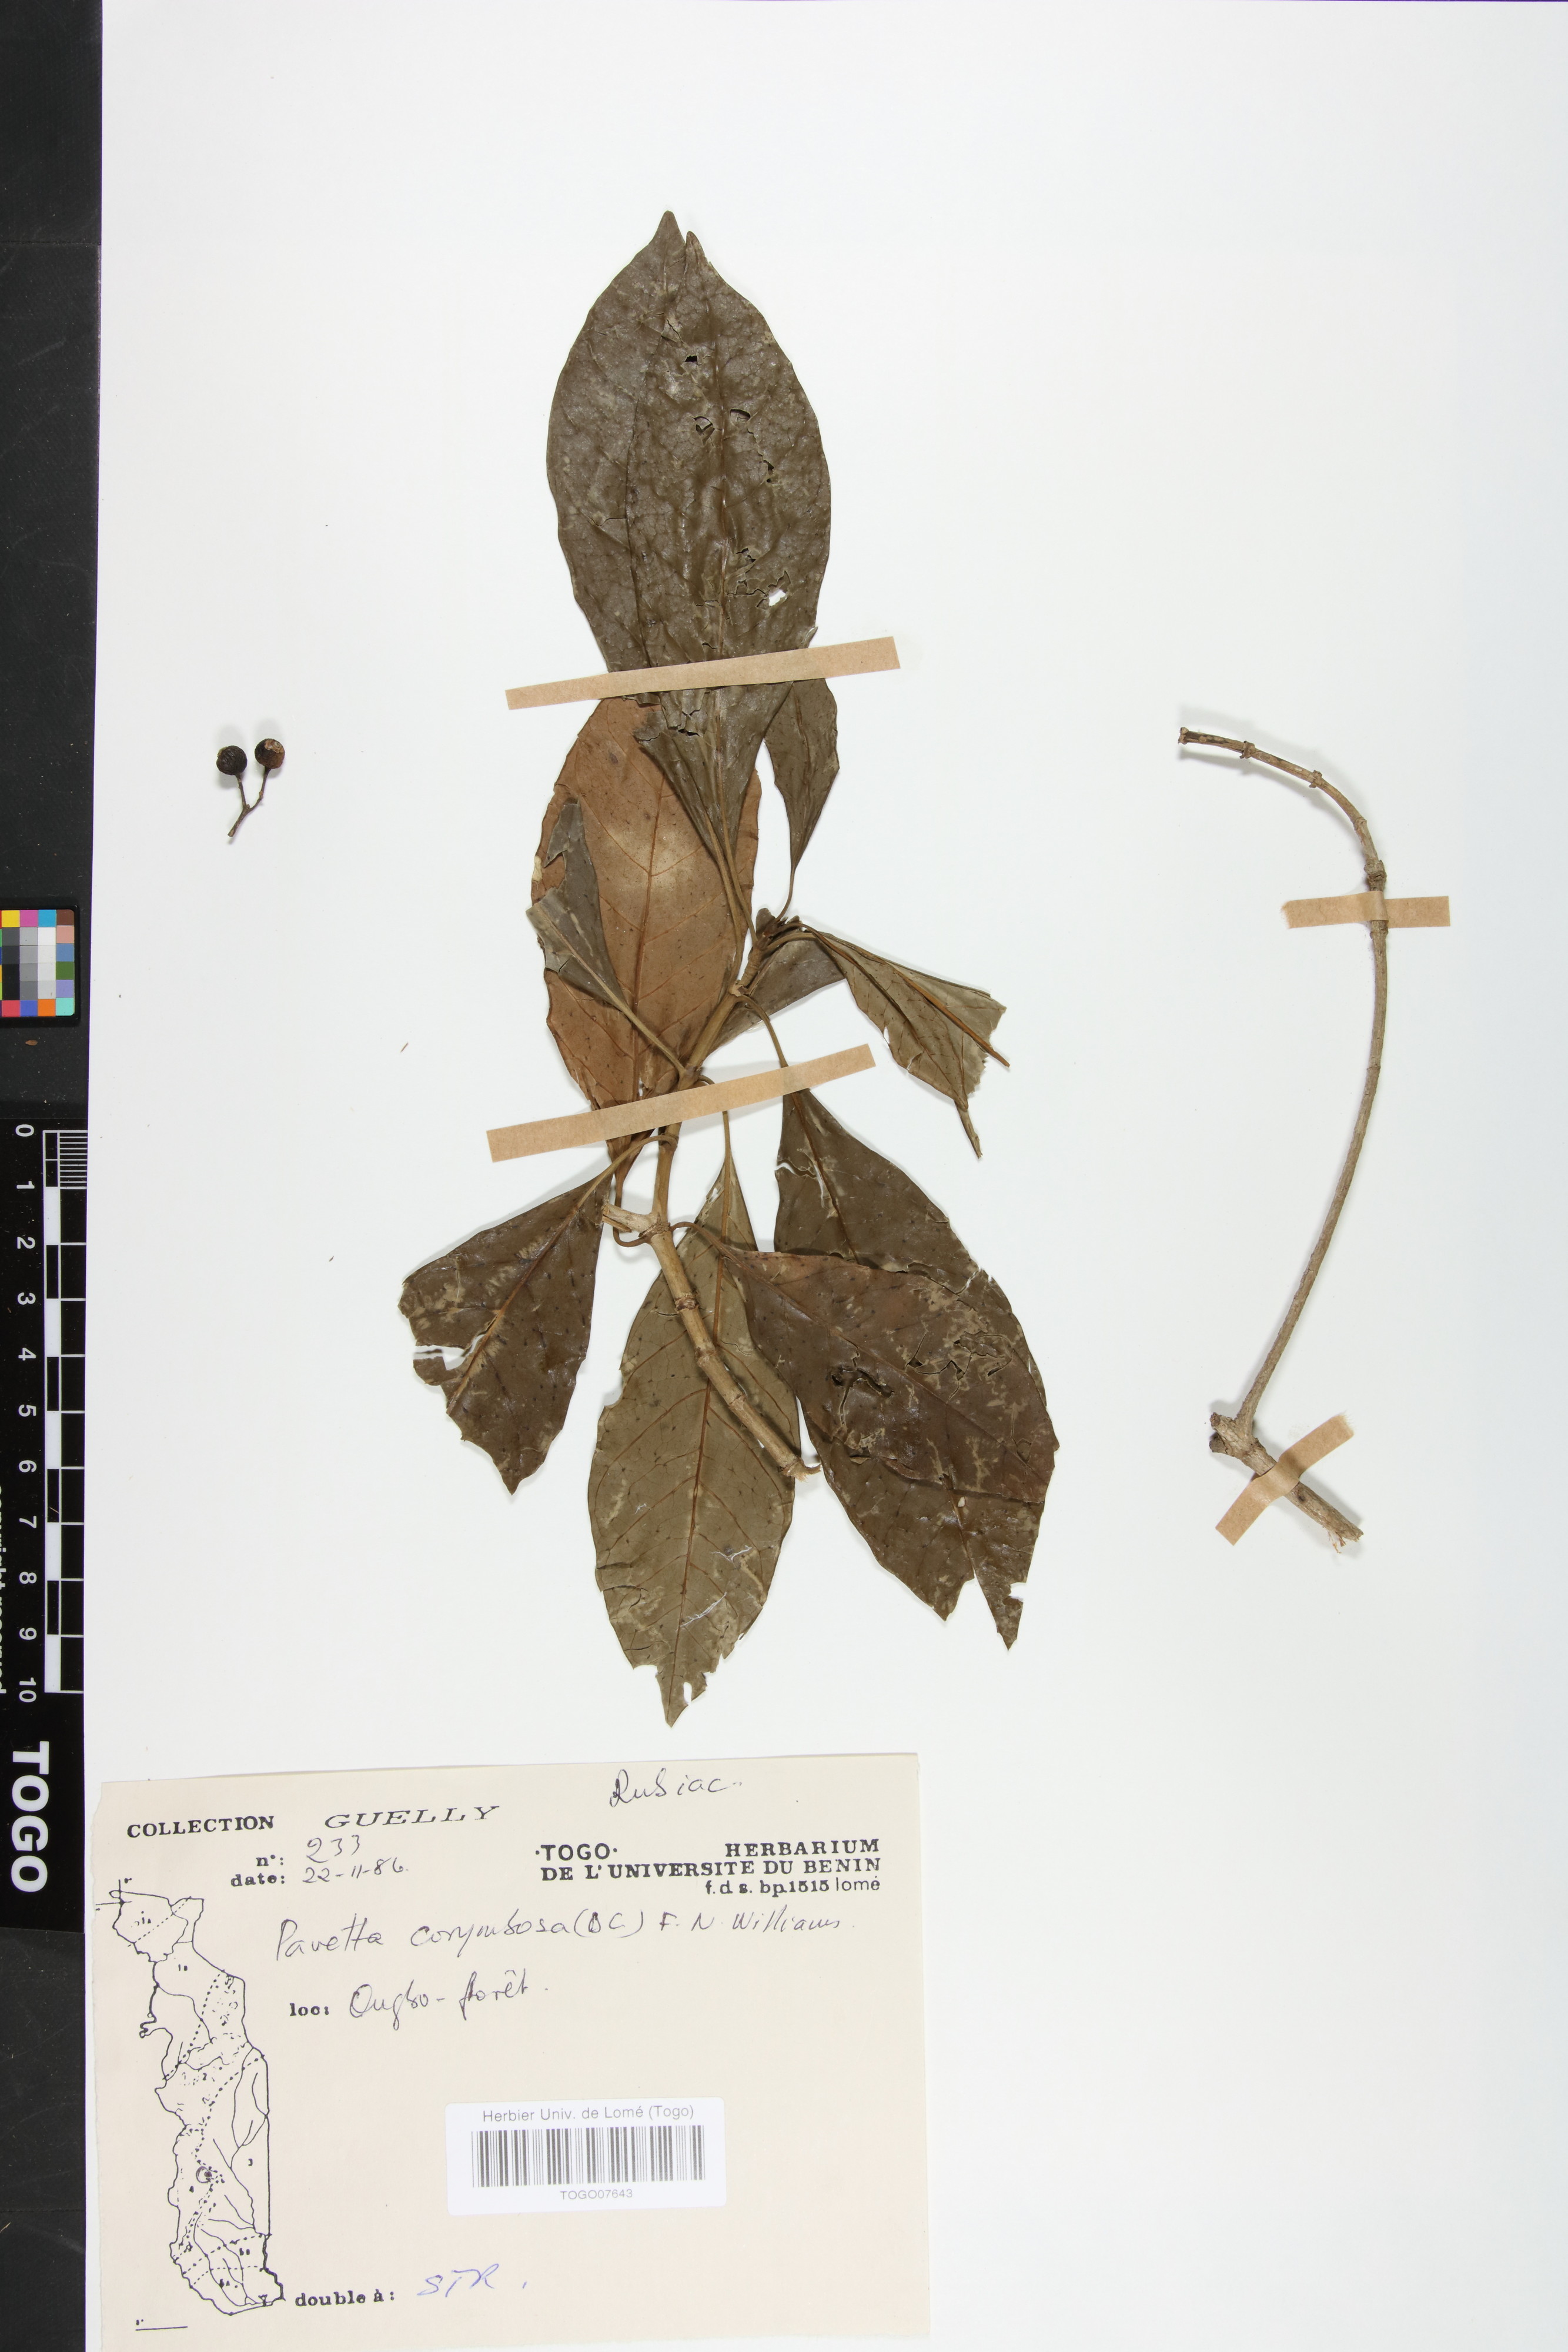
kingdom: Plantae
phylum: Tracheophyta
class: Magnoliopsida
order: Gentianales
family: Rubiaceae
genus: Pavetta
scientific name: Pavetta corymbosa
